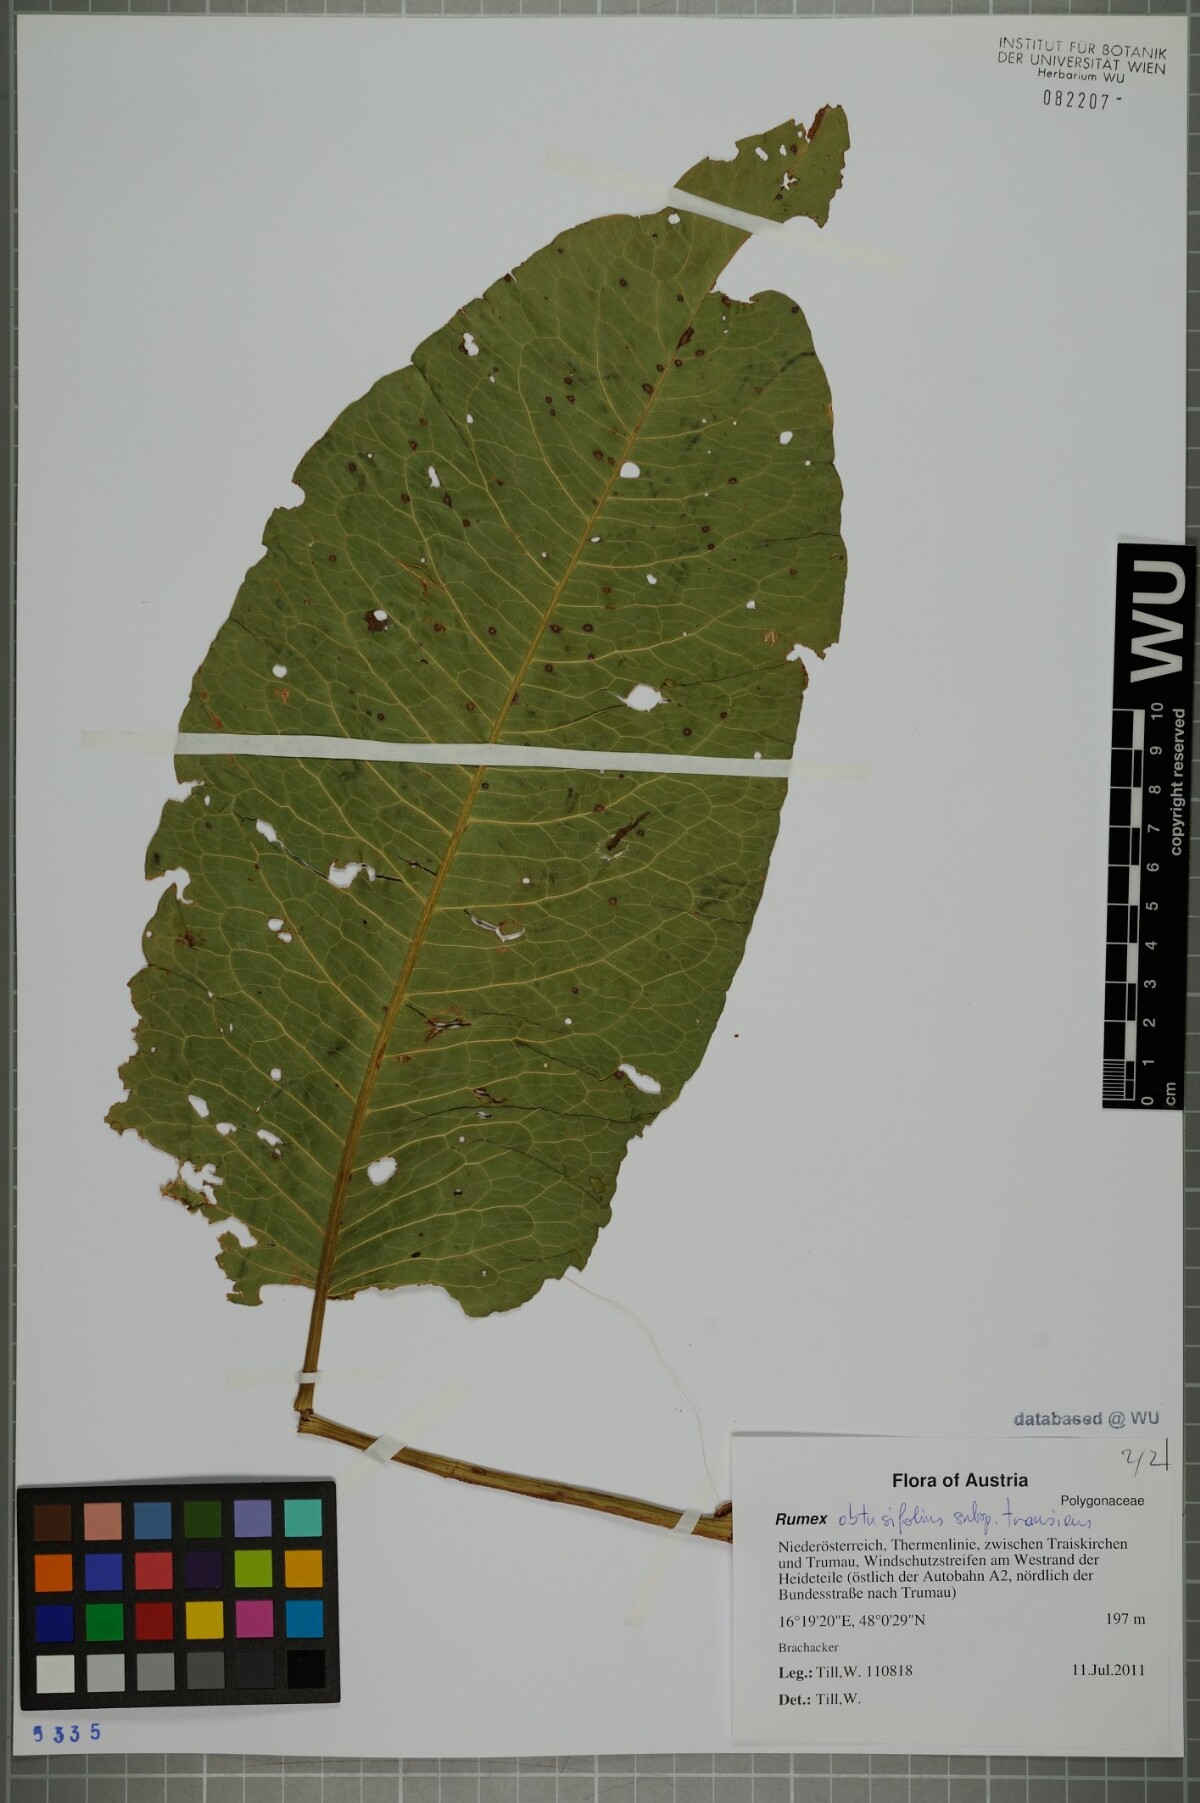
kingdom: Plantae
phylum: Tracheophyta
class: Magnoliopsida
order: Caryophyllales
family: Polygonaceae
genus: Rumex
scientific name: Rumex obtusifolius
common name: Bitter dock
